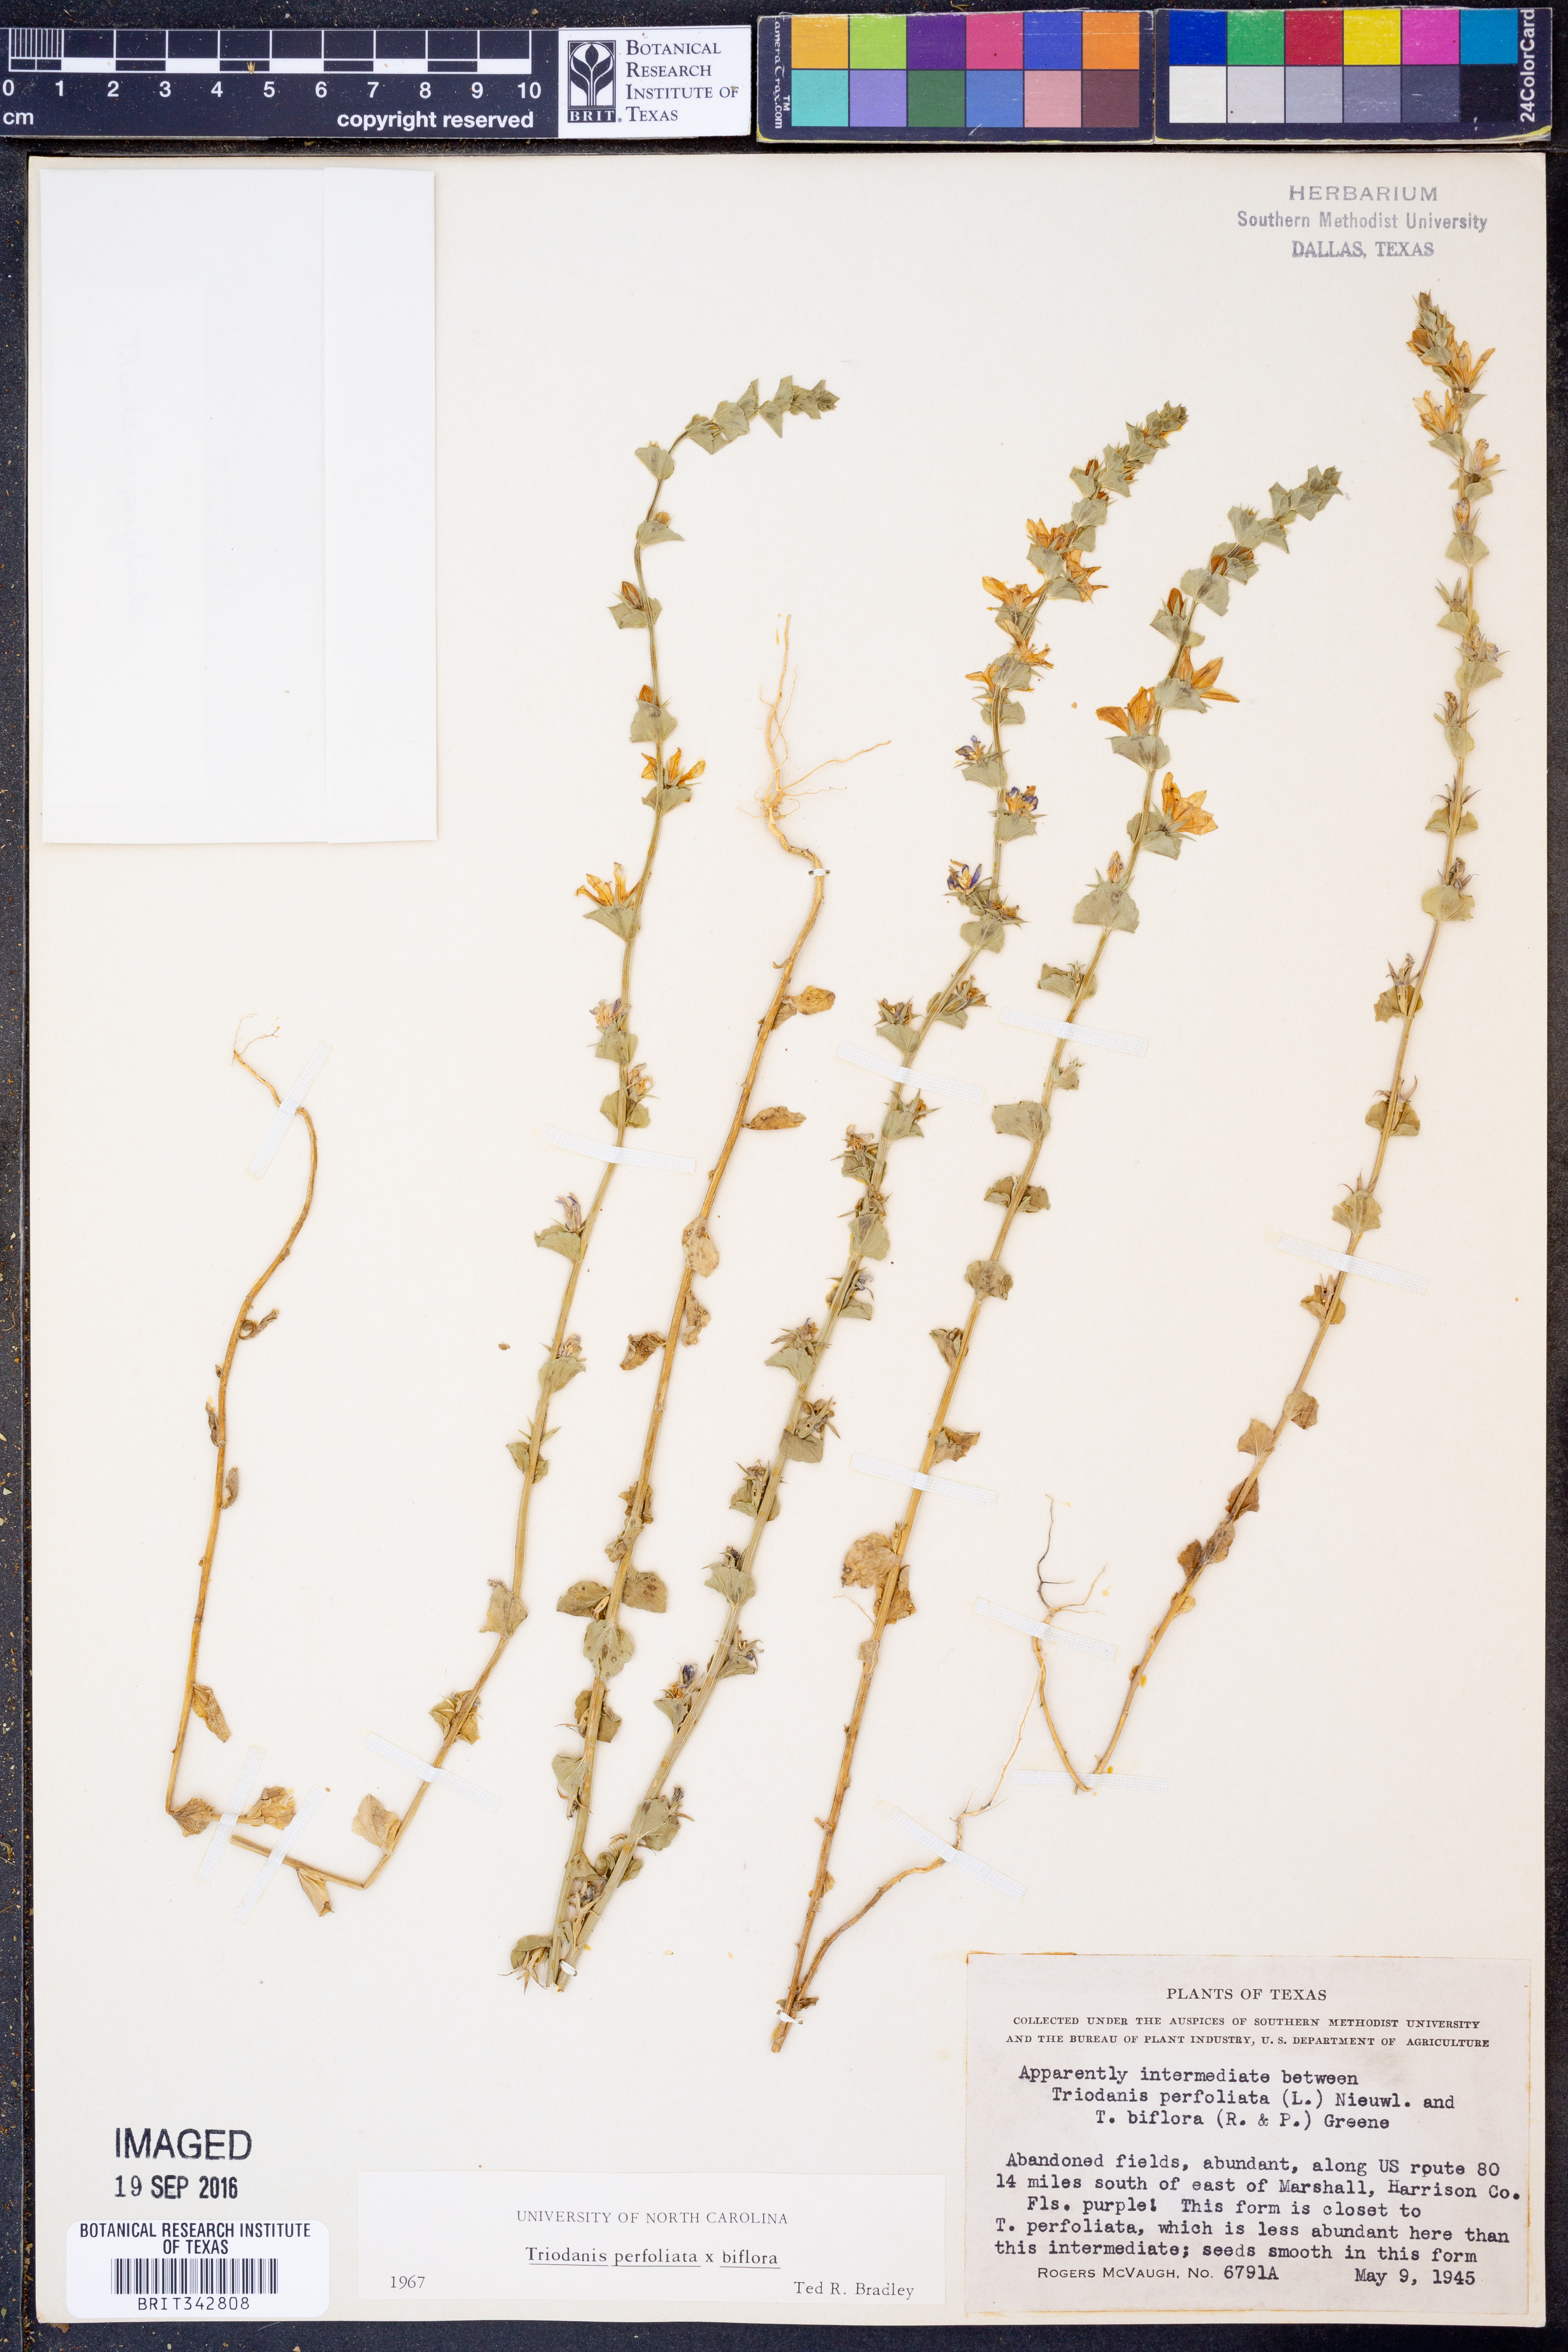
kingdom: Plantae
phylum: Tracheophyta
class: Magnoliopsida
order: Asterales
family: Campanulaceae
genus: Triodanis
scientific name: Triodanis perfoliata
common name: Clasping venus' looking-glass
